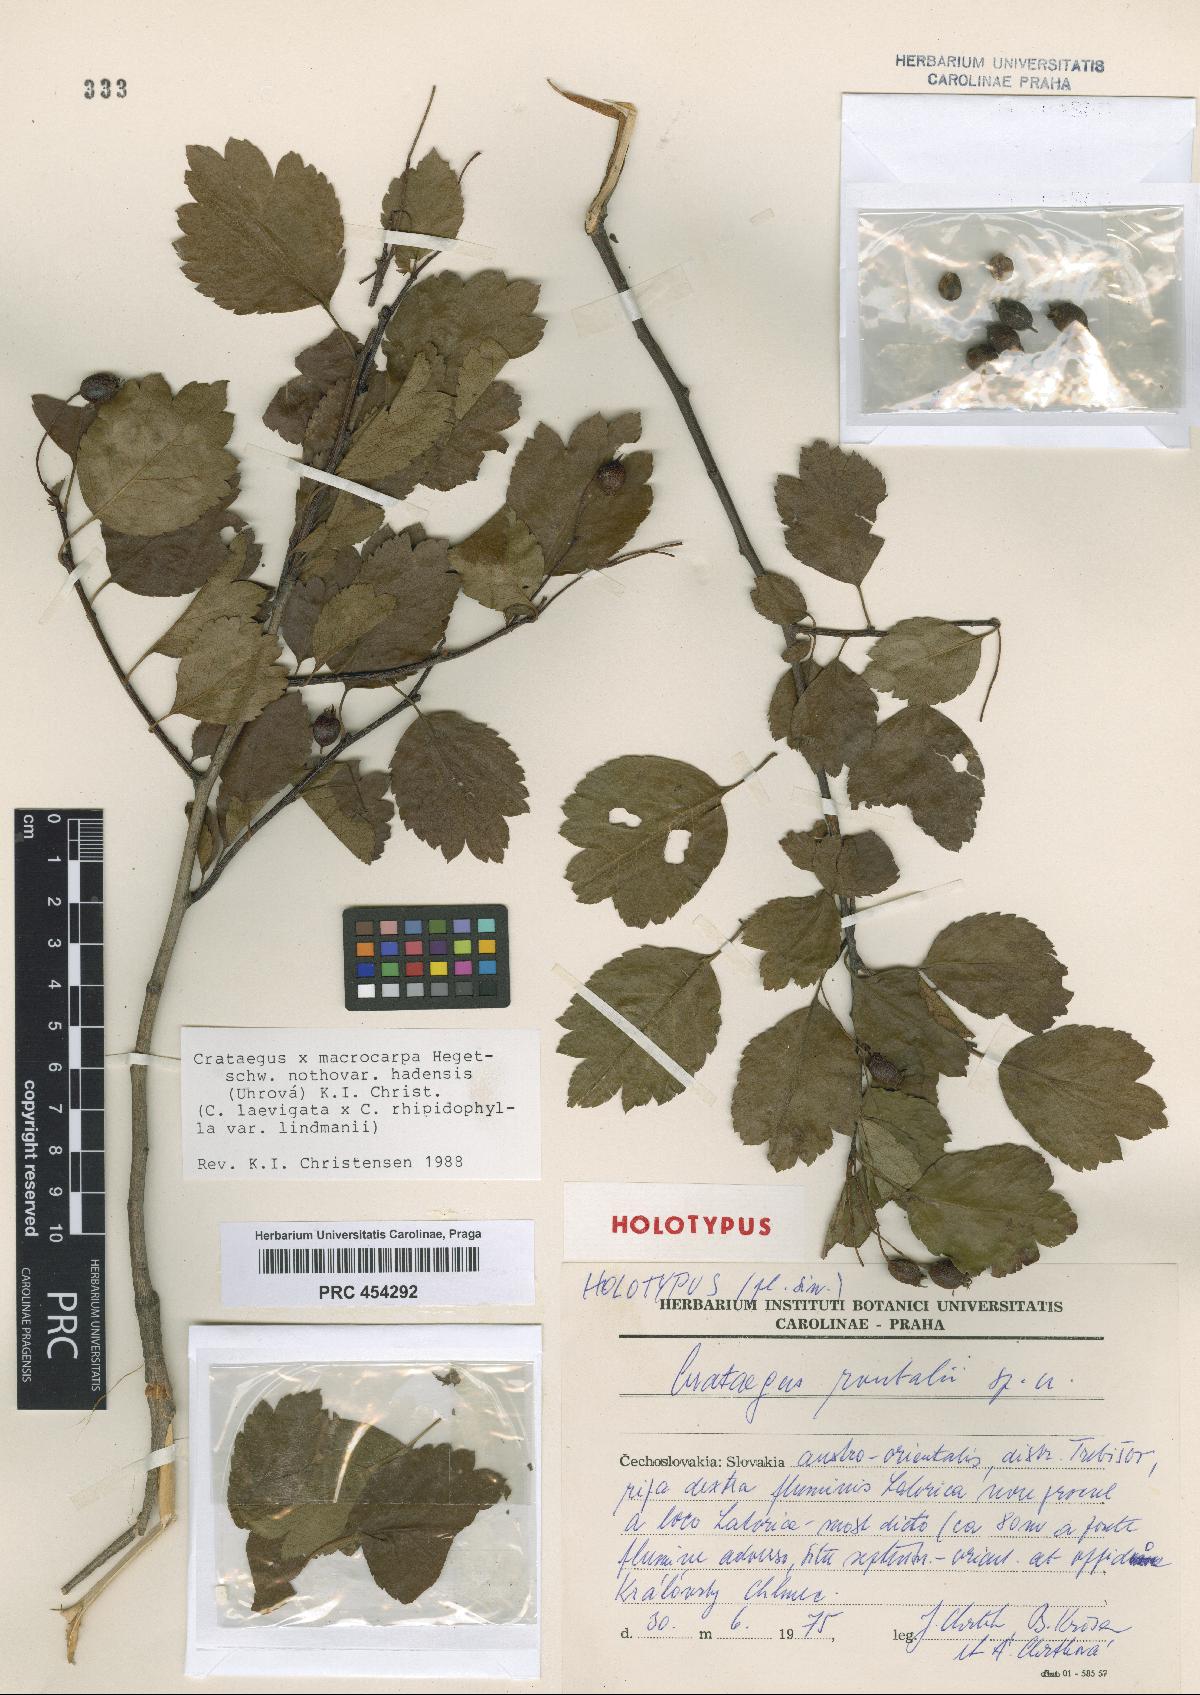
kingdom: Plantae
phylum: Tracheophyta
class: Magnoliopsida
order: Rosales
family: Rosaceae
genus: Crataegus
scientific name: Crataegus calycina
